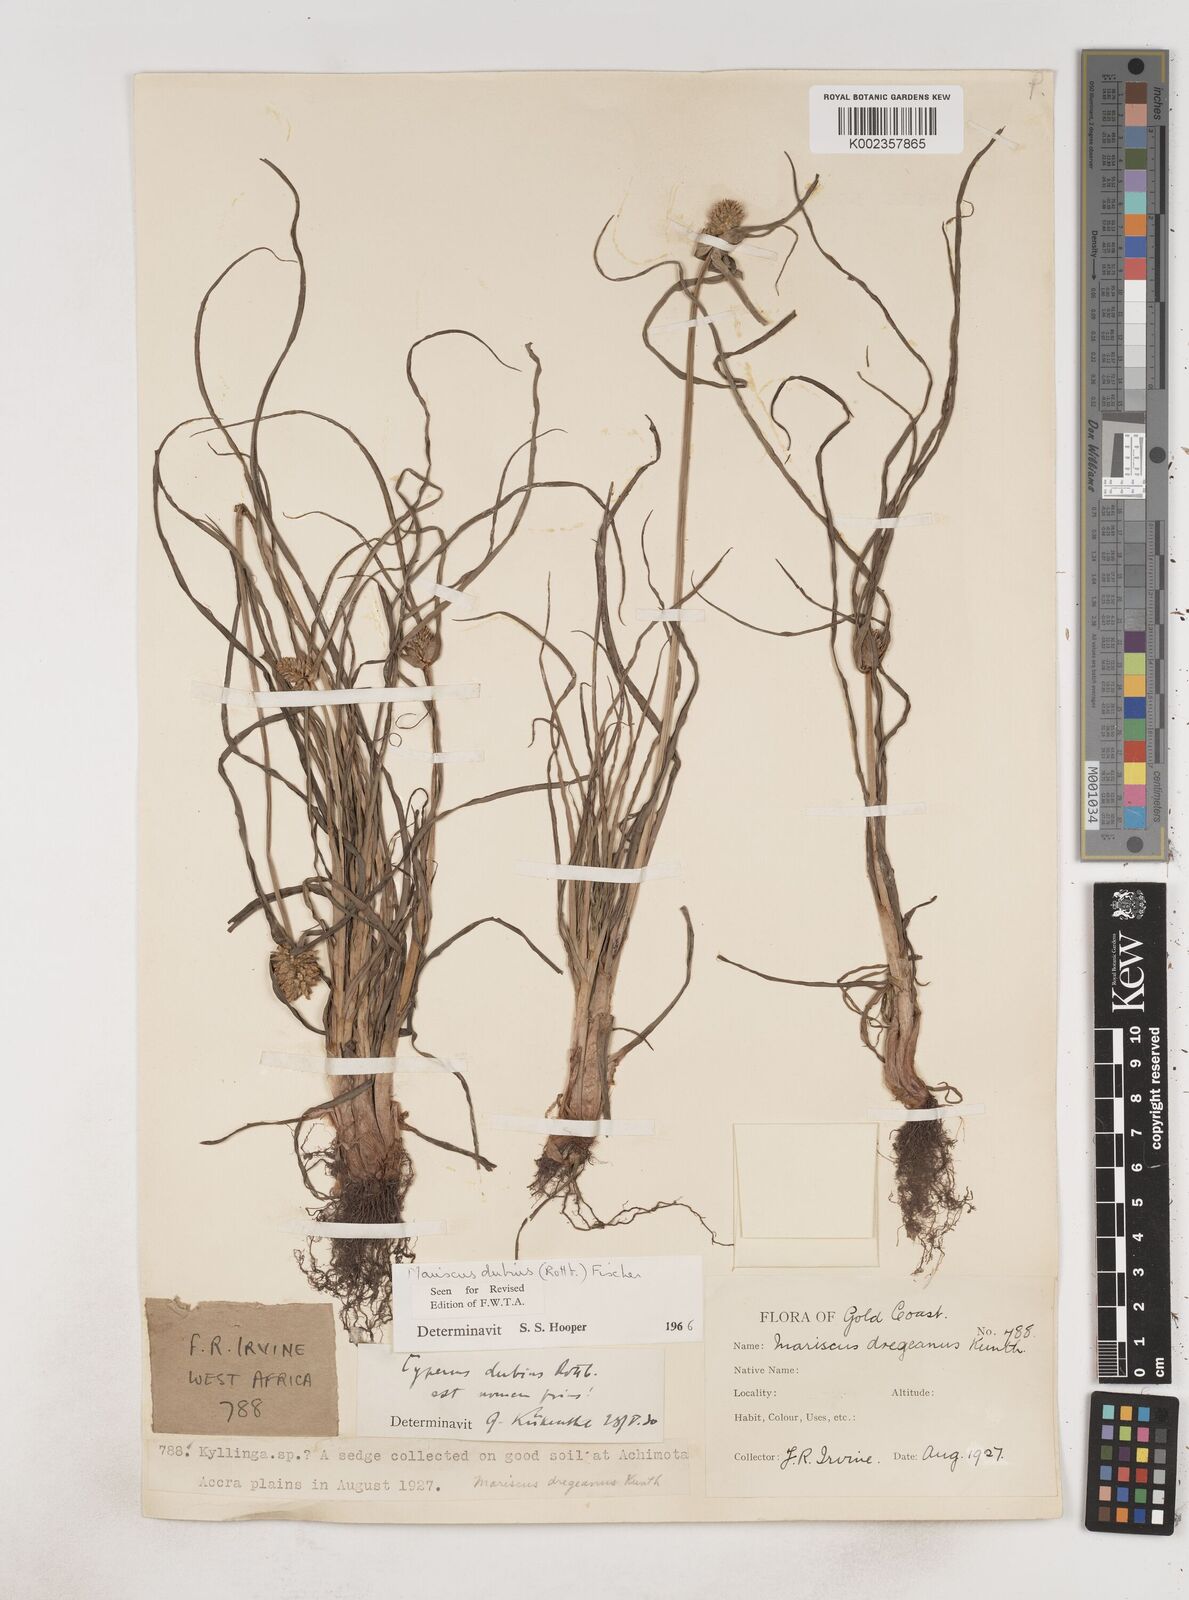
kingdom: Plantae
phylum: Tracheophyta
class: Liliopsida
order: Poales
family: Cyperaceae
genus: Cyperus
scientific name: Cyperus dubius
